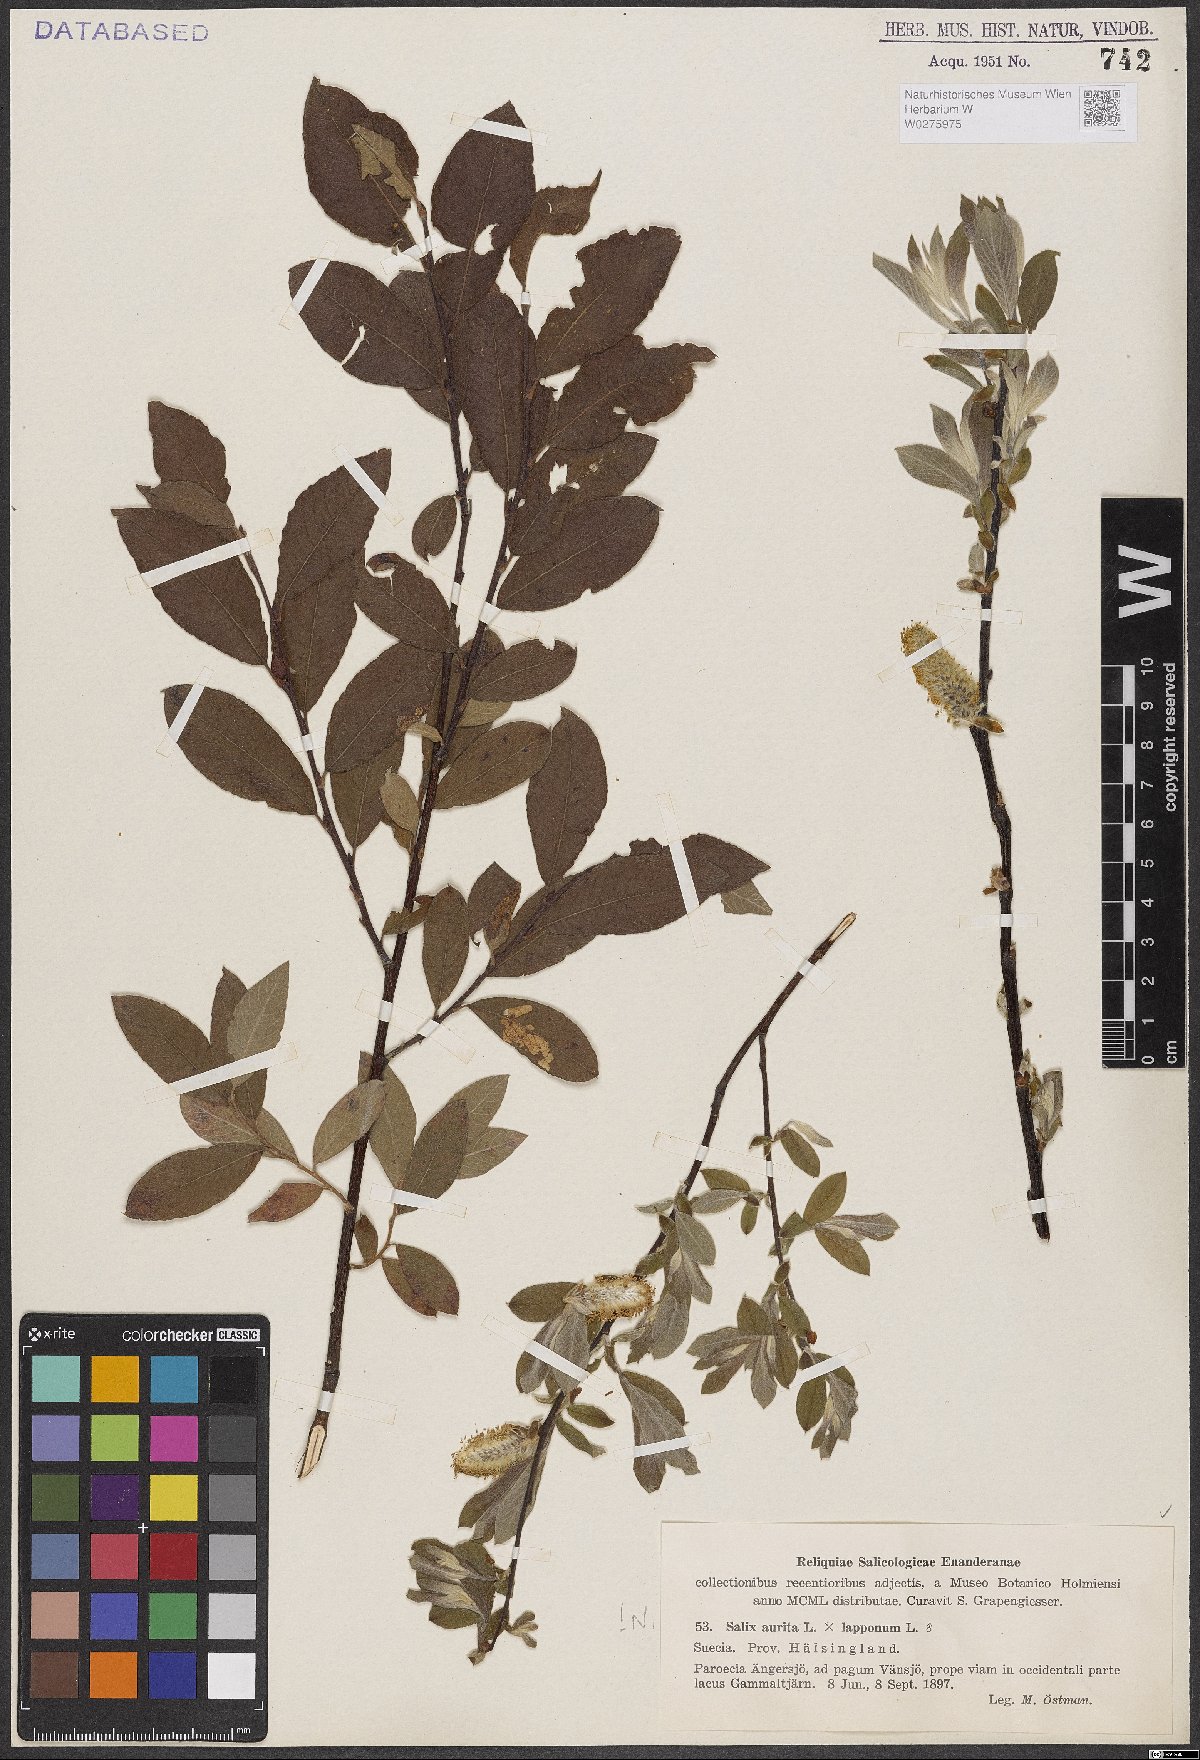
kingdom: Plantae
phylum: Tracheophyta
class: Magnoliopsida
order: Malpighiales
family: Salicaceae
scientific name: Salicaceae
